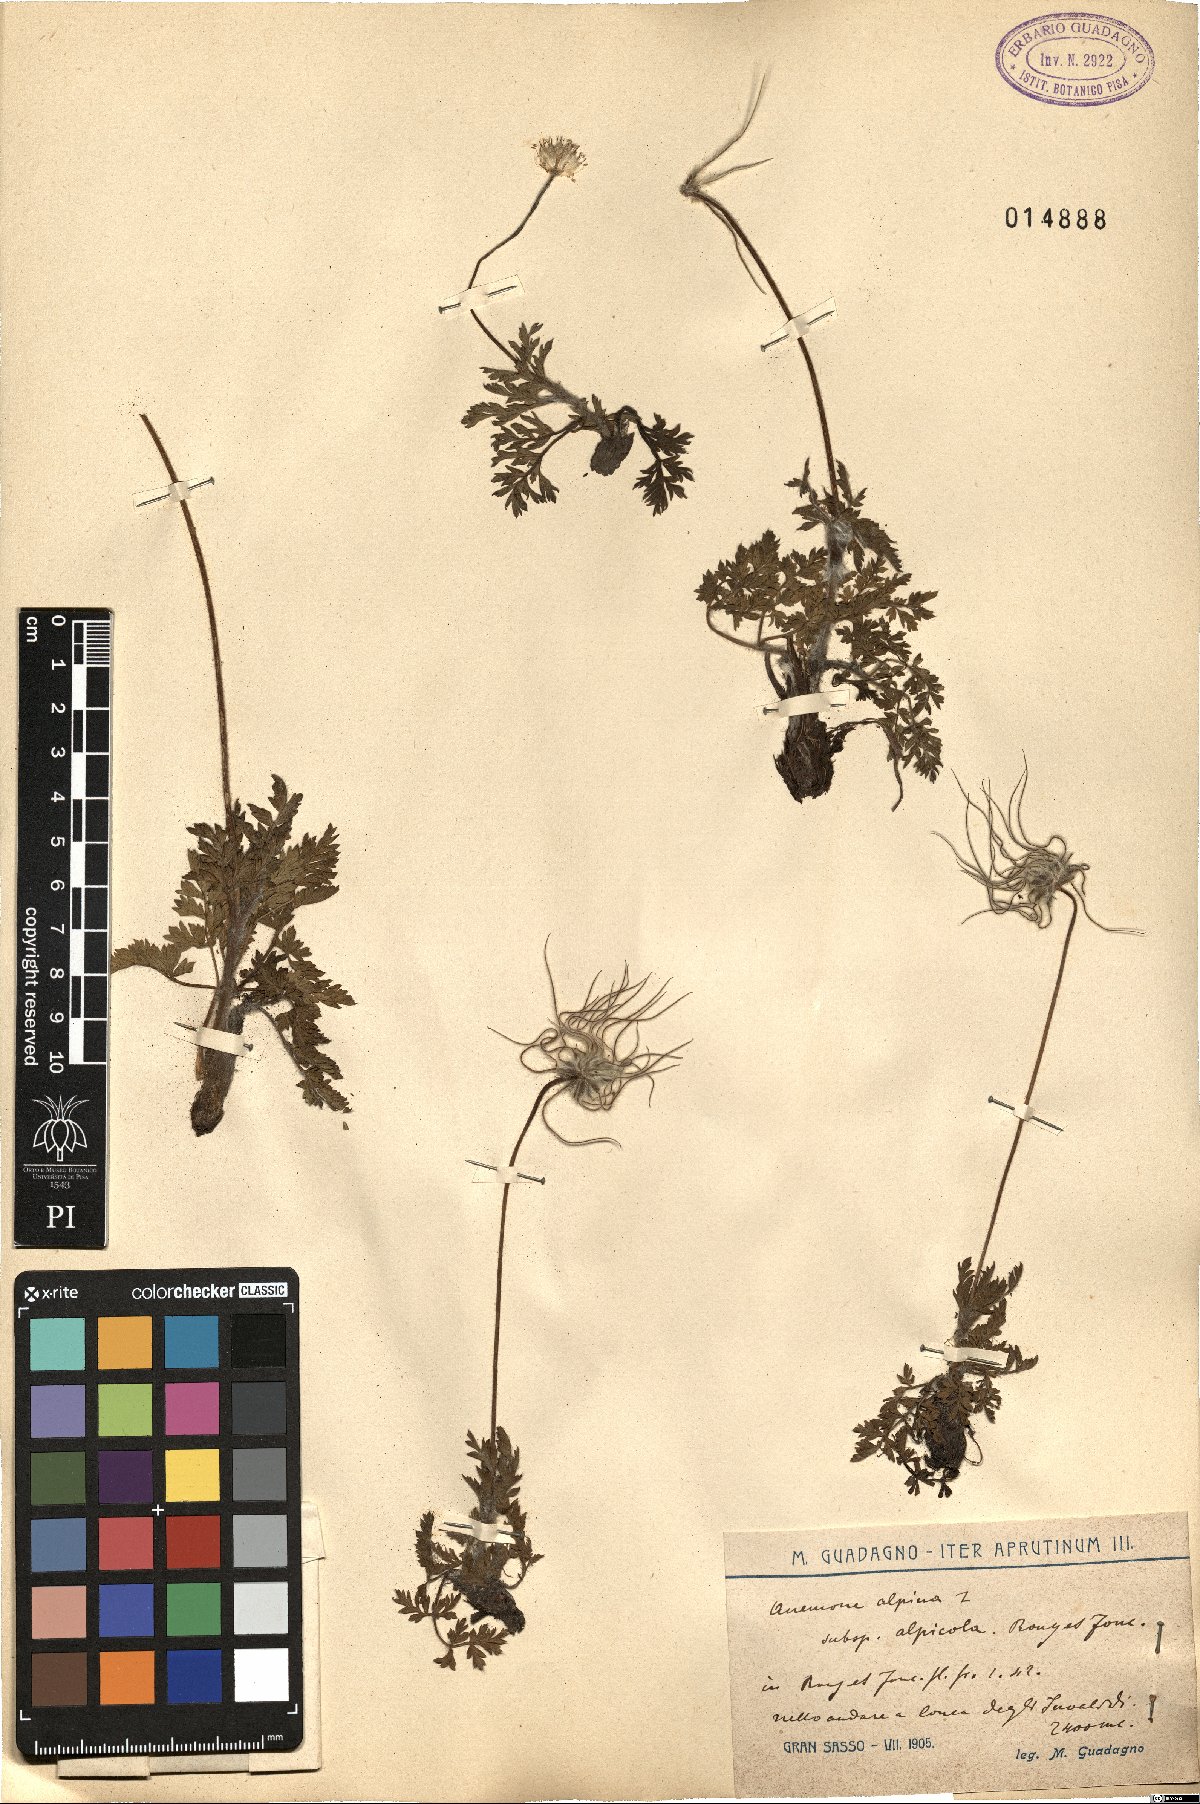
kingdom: Plantae
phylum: Tracheophyta
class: Magnoliopsida
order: Ranunculales
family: Ranunculaceae
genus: Pulsatilla
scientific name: Pulsatilla alpina
